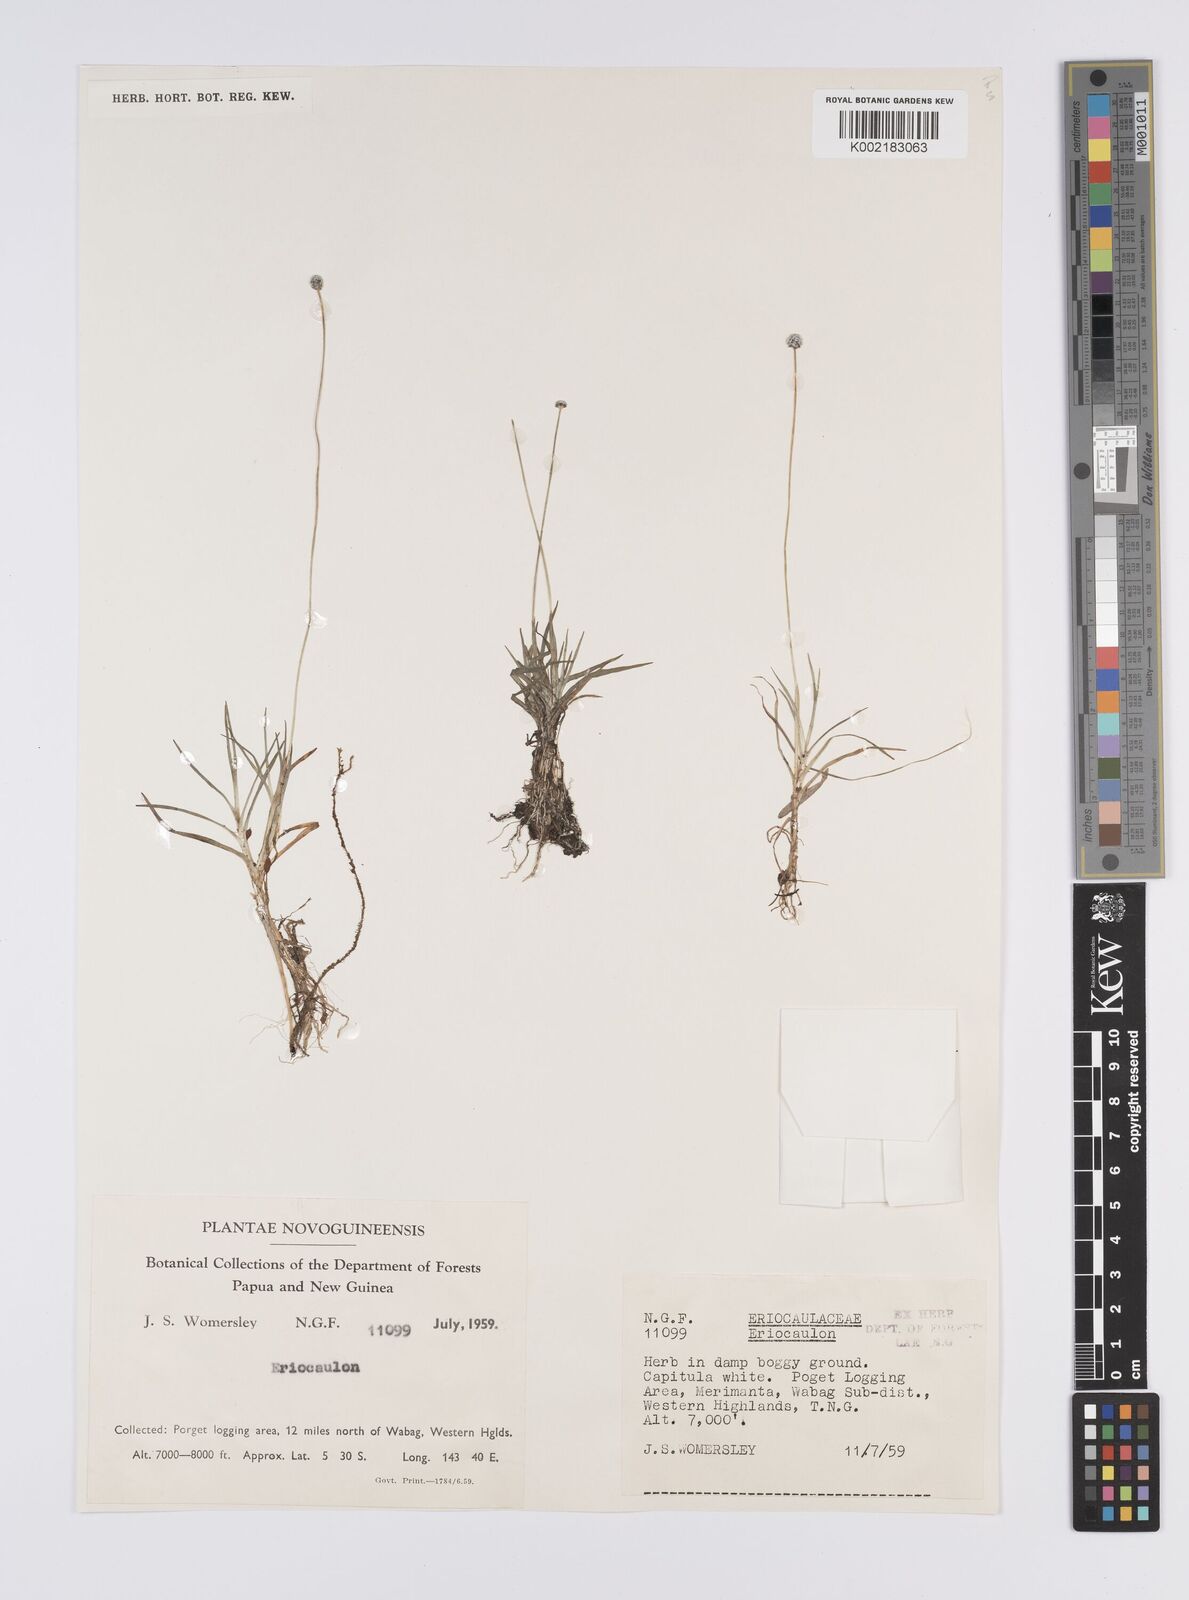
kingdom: Plantae
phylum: Tracheophyta
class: Liliopsida
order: Poales
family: Eriocaulaceae
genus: Eriocaulon
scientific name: Eriocaulon
